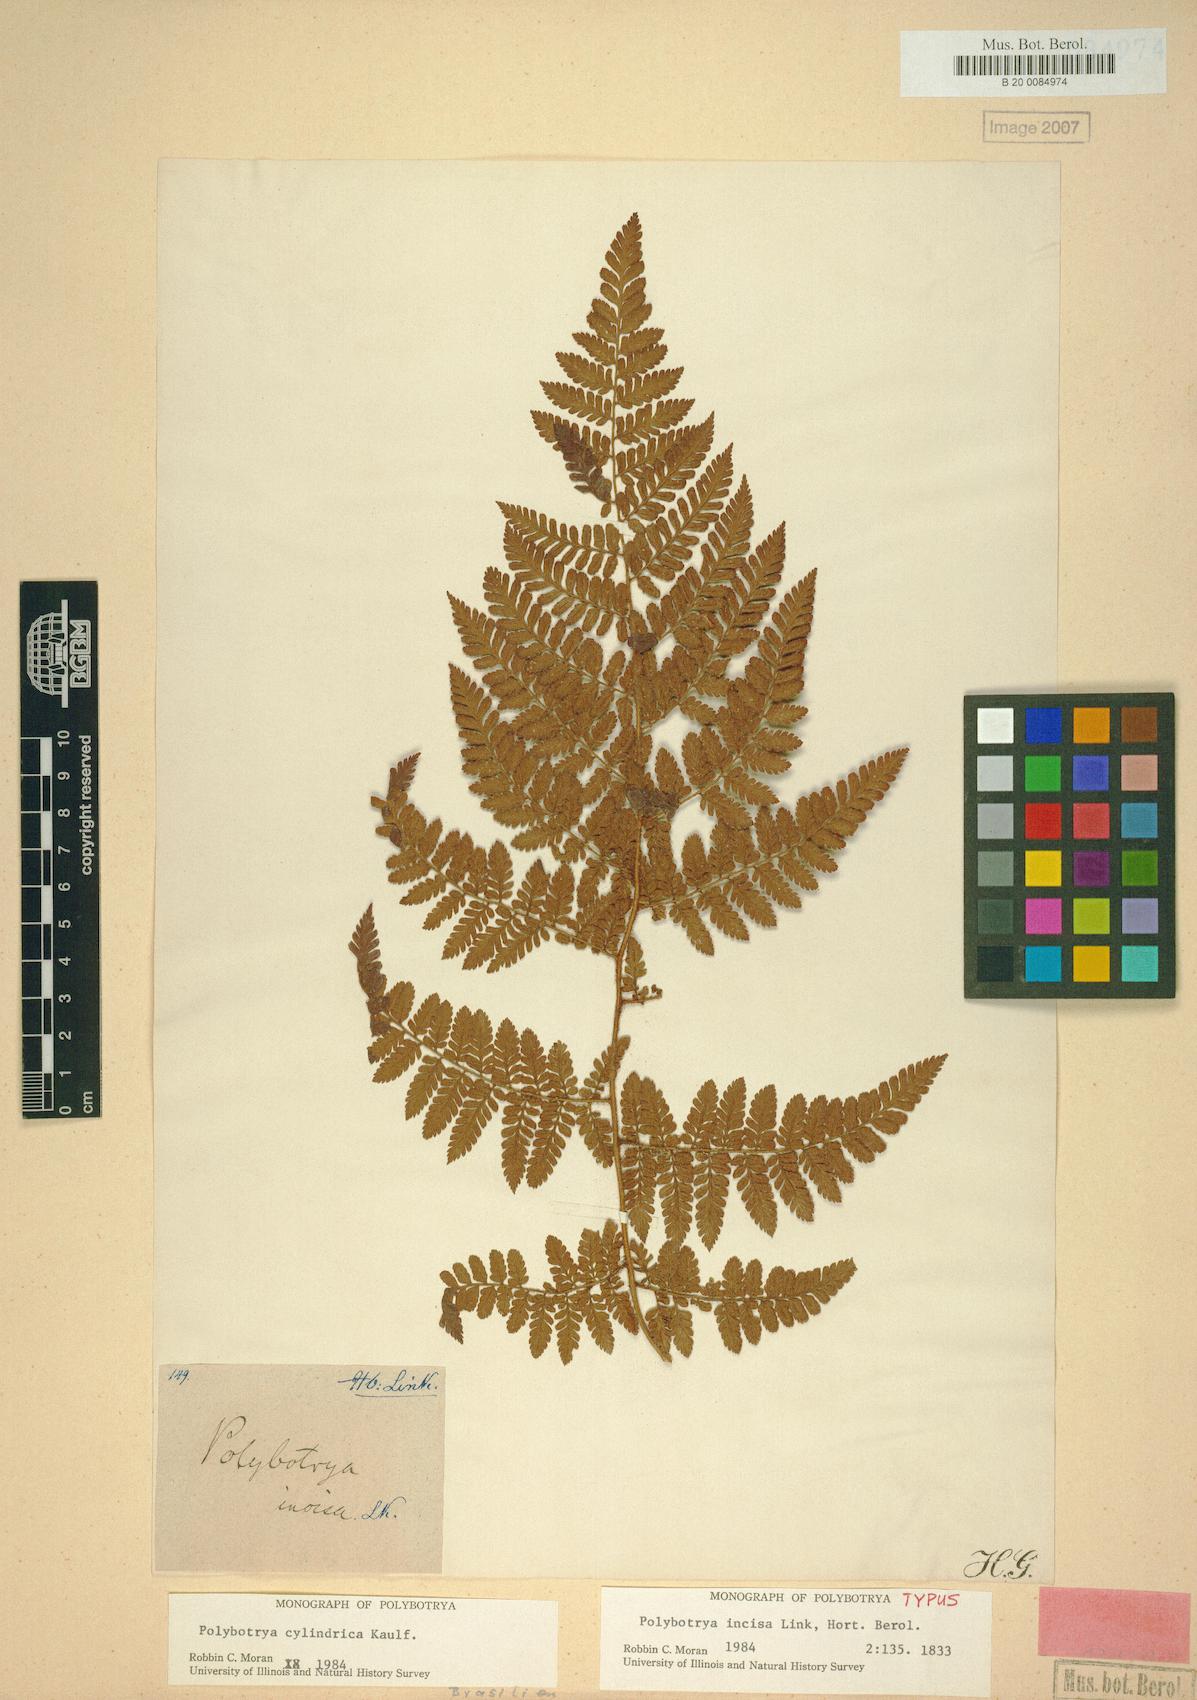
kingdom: Plantae
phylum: Tracheophyta
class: Polypodiopsida
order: Polypodiales
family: Dryopteridaceae
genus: Polybotrya
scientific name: Polybotrya cylindrica
